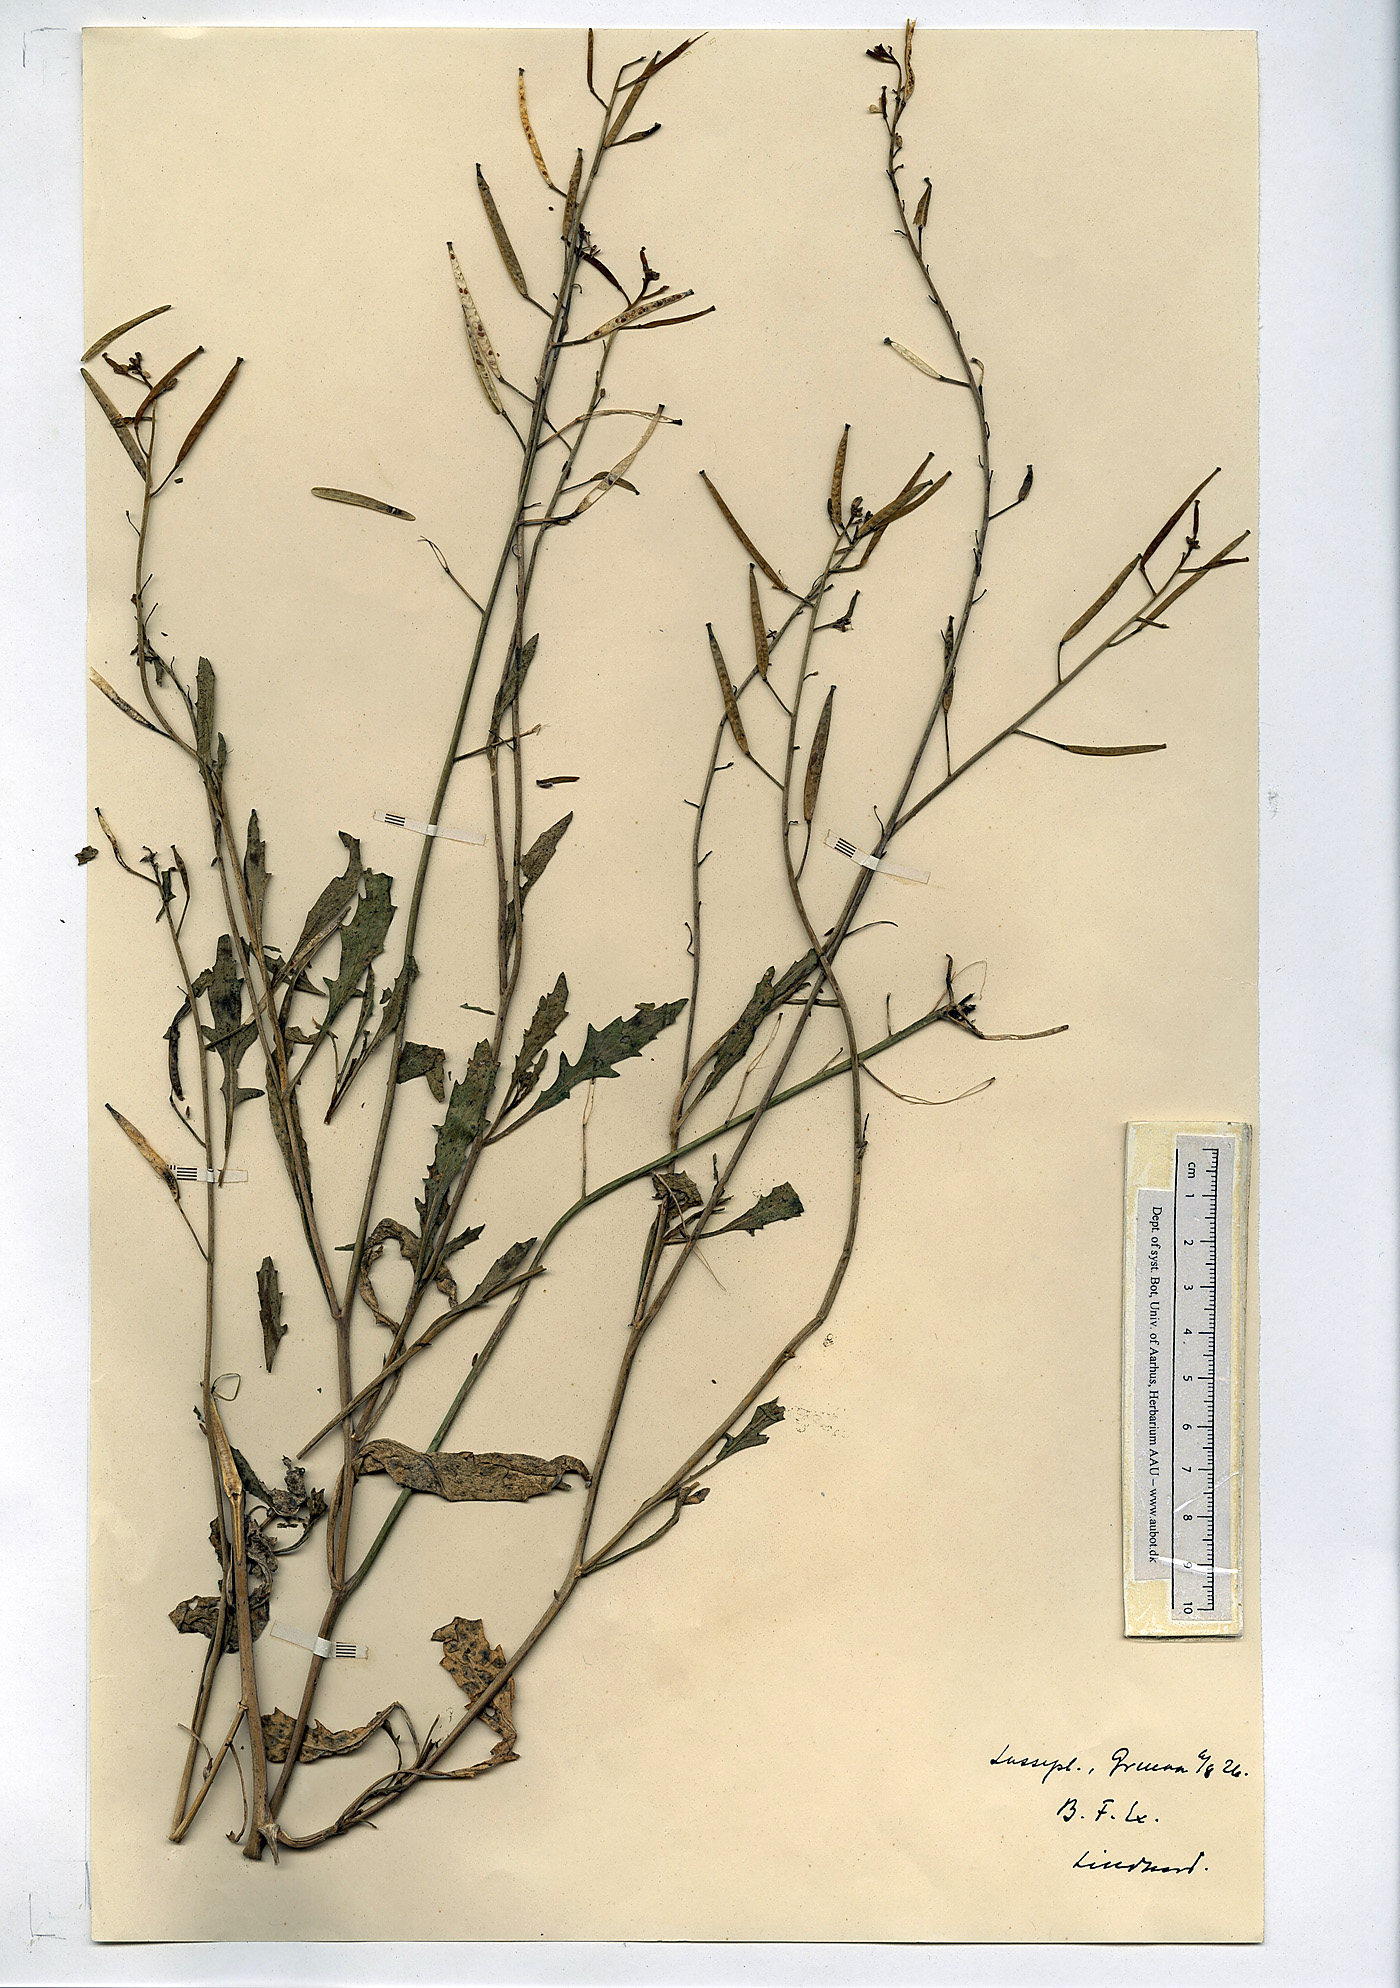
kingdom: Plantae
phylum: Tracheophyta
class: Magnoliopsida
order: Brassicales
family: Brassicaceae
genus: Diplotaxis
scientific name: Diplotaxis muralis
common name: Annual wall-rocket
